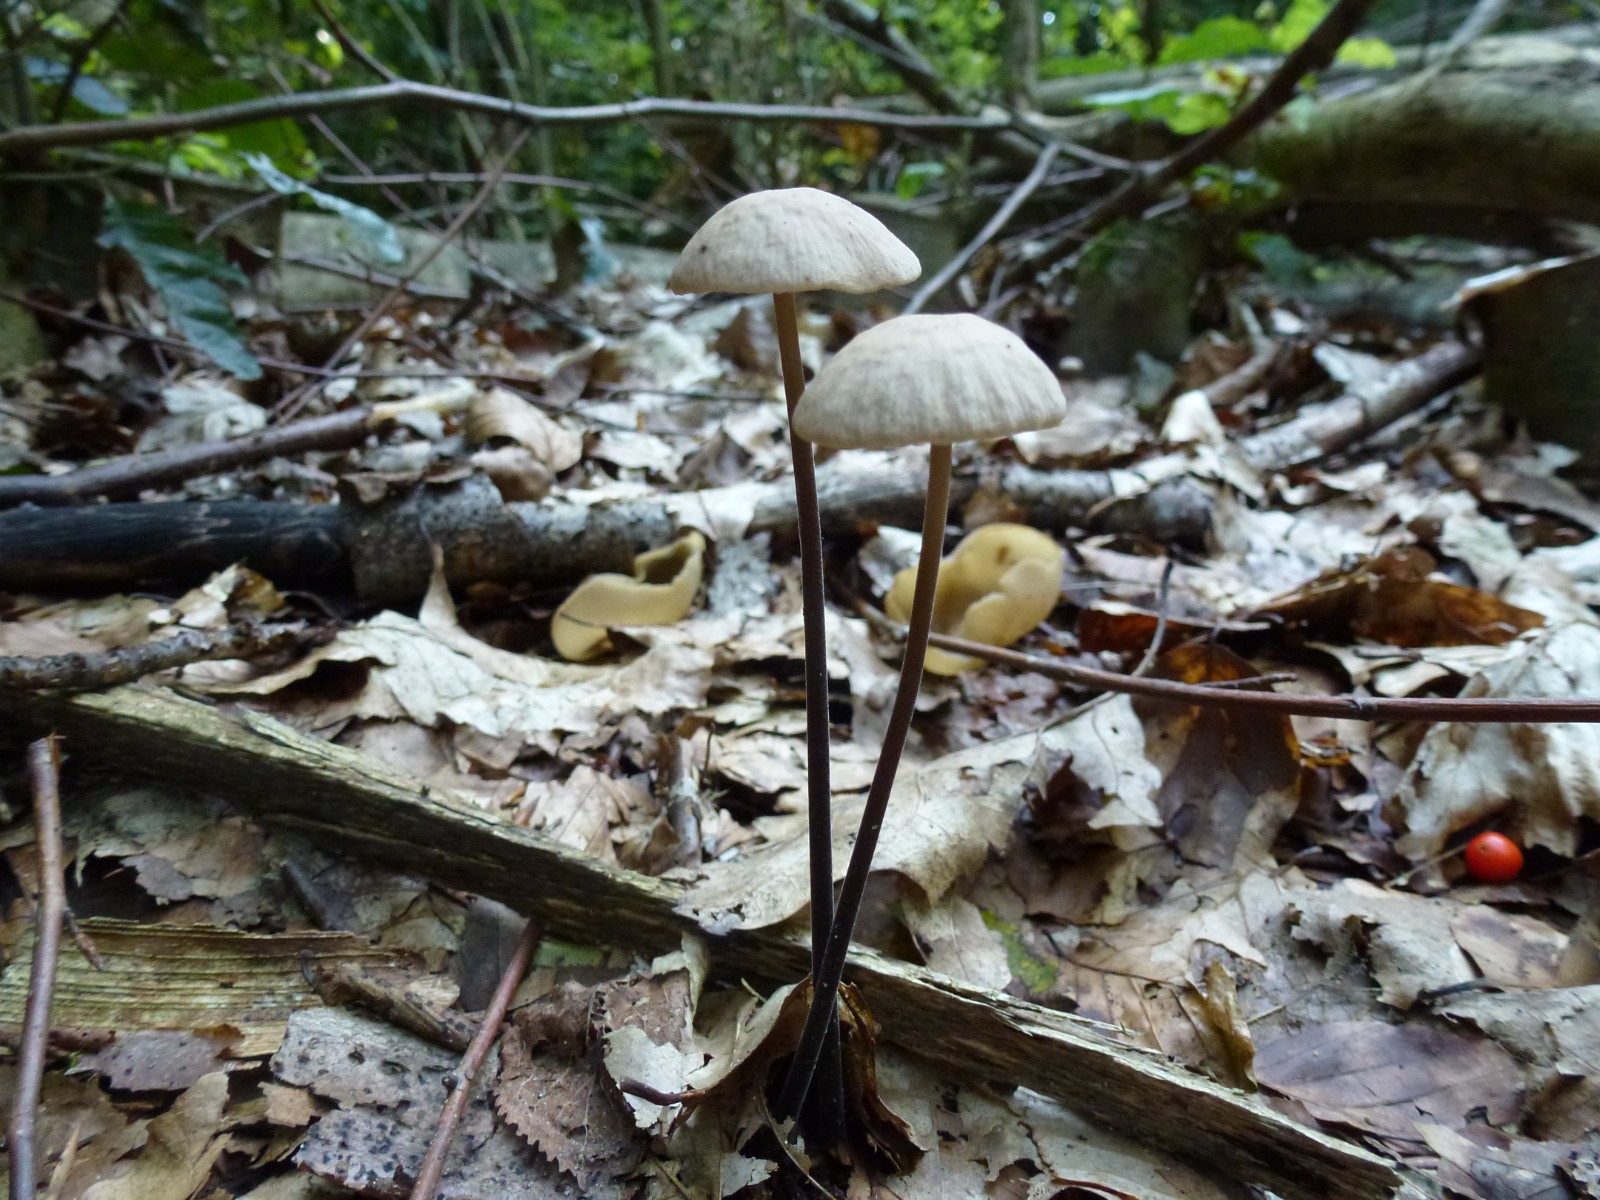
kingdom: Fungi
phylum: Basidiomycota
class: Agaricomycetes
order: Agaricales
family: Omphalotaceae
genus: Mycetinis
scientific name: Mycetinis alliaceus
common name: stor løghat
